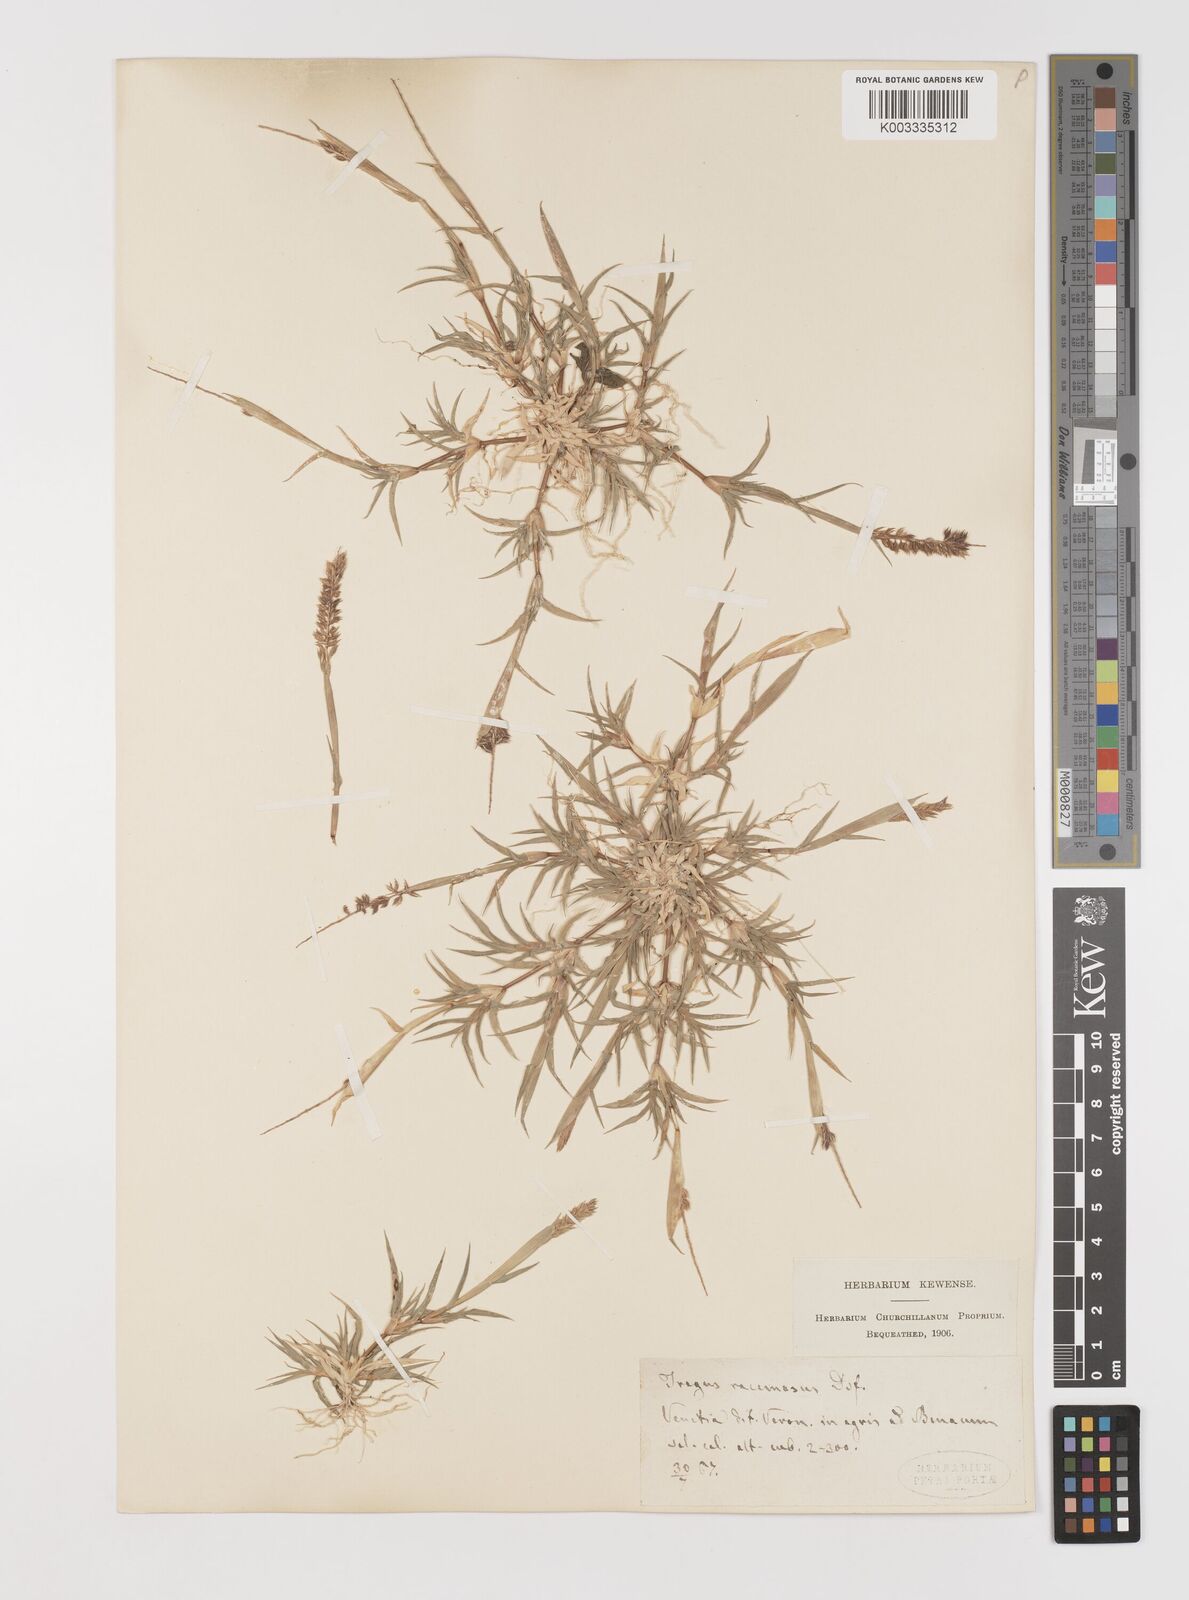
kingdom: Plantae
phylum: Tracheophyta
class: Liliopsida
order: Poales
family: Poaceae
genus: Tragus
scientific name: Tragus racemosus
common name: European bur-grass
